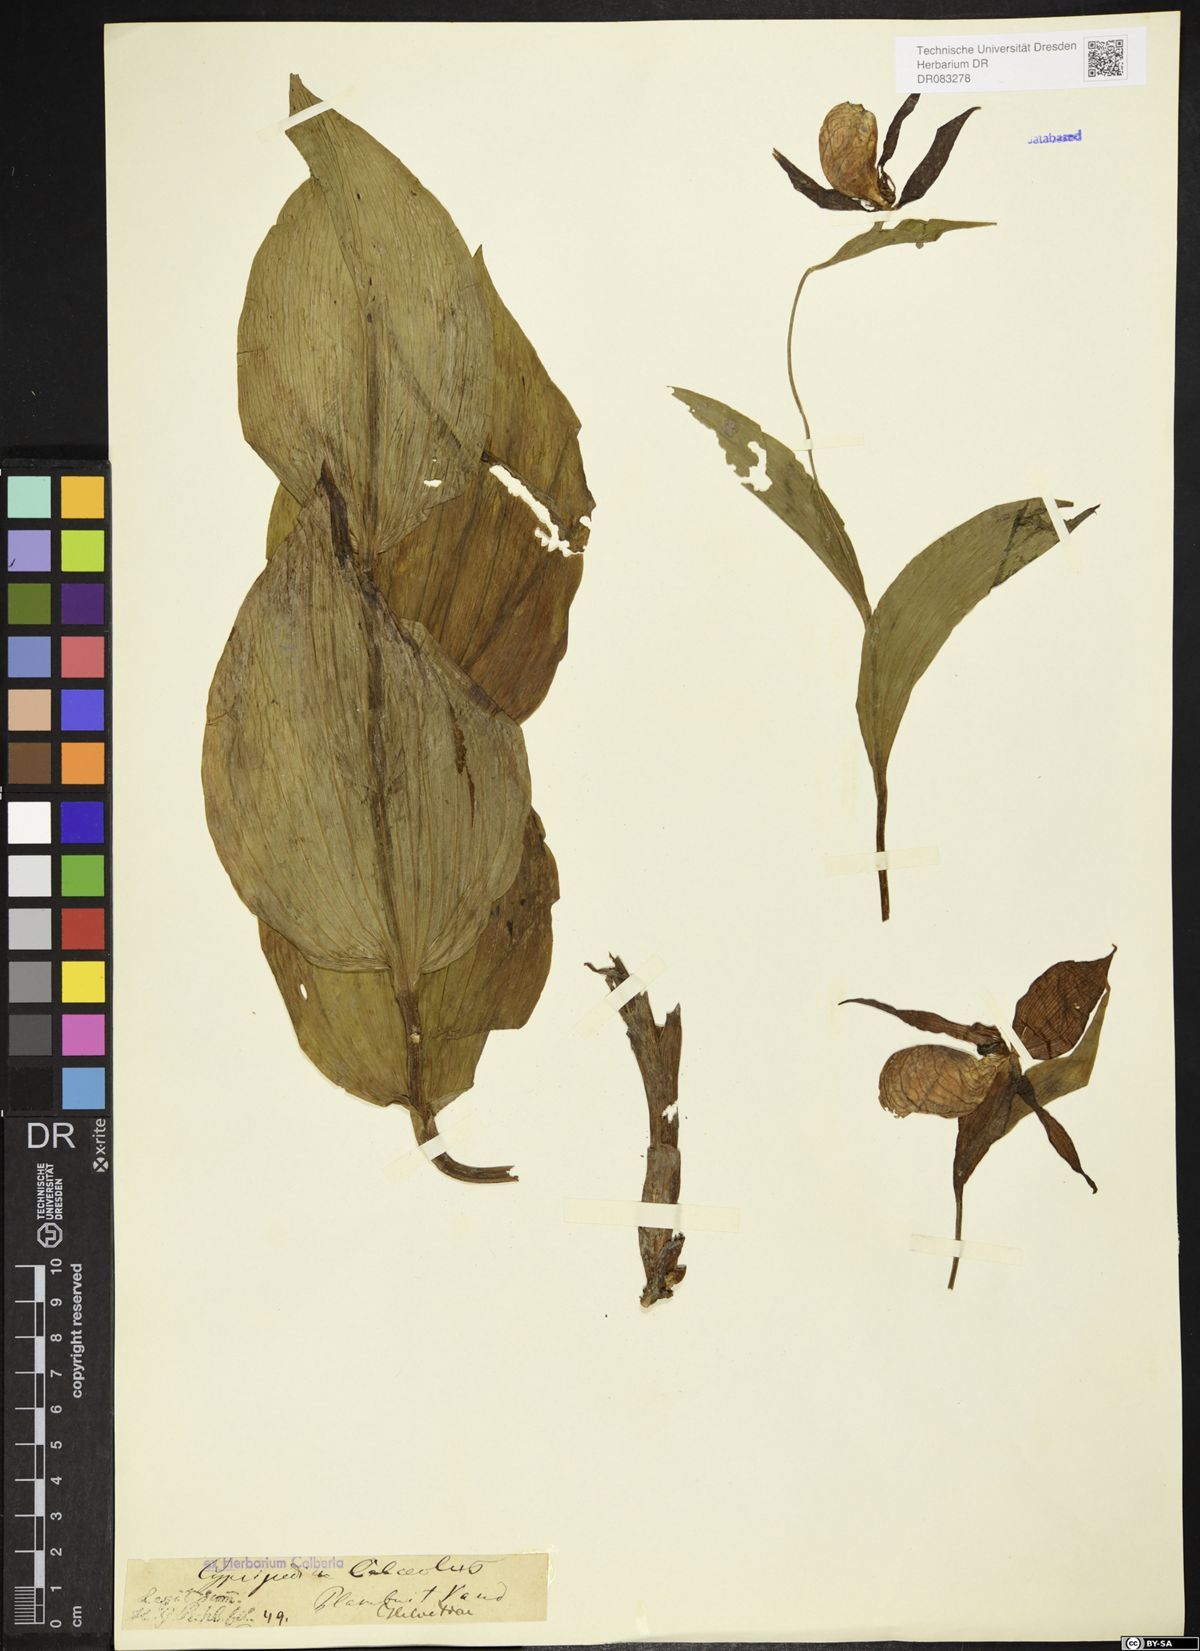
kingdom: Plantae
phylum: Tracheophyta
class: Liliopsida
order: Asparagales
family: Orchidaceae
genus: Cypripedium
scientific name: Cypripedium calceolus
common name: Lady's-slipper
